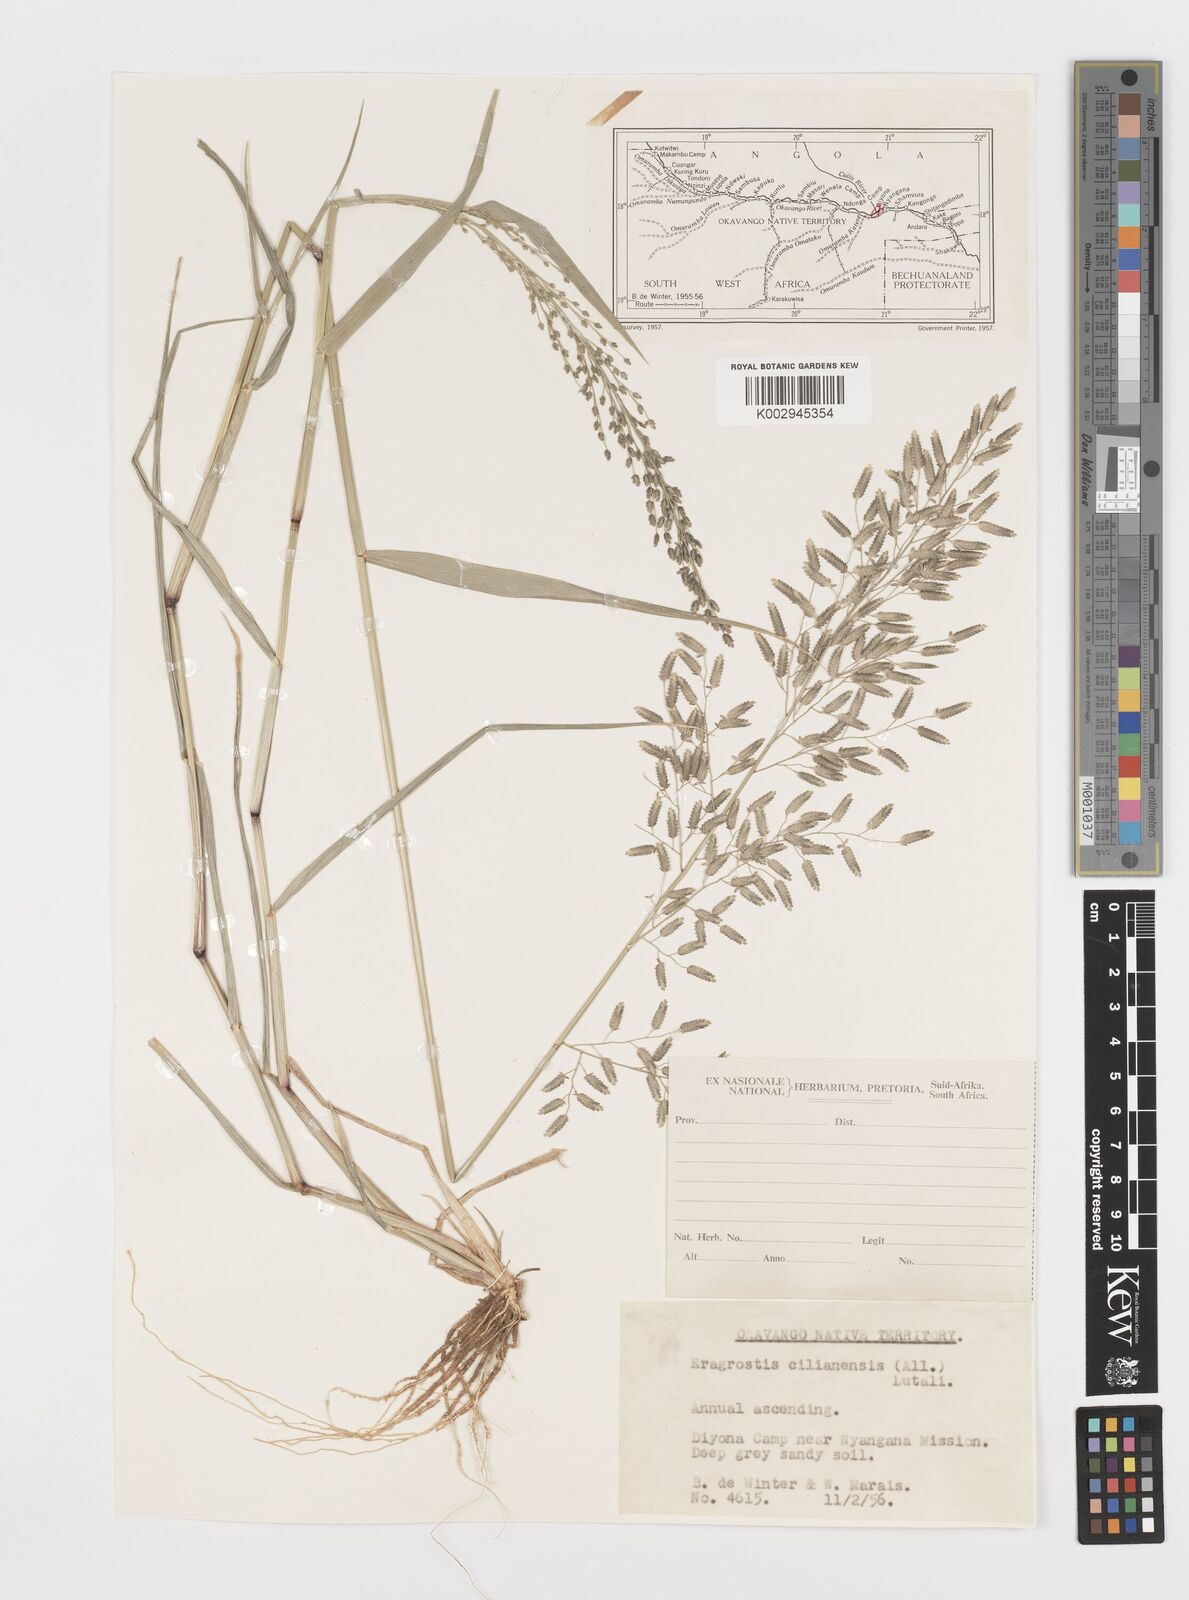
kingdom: Plantae
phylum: Tracheophyta
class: Liliopsida
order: Poales
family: Poaceae
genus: Eragrostis
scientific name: Eragrostis cilianensis
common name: Stinkgrass
